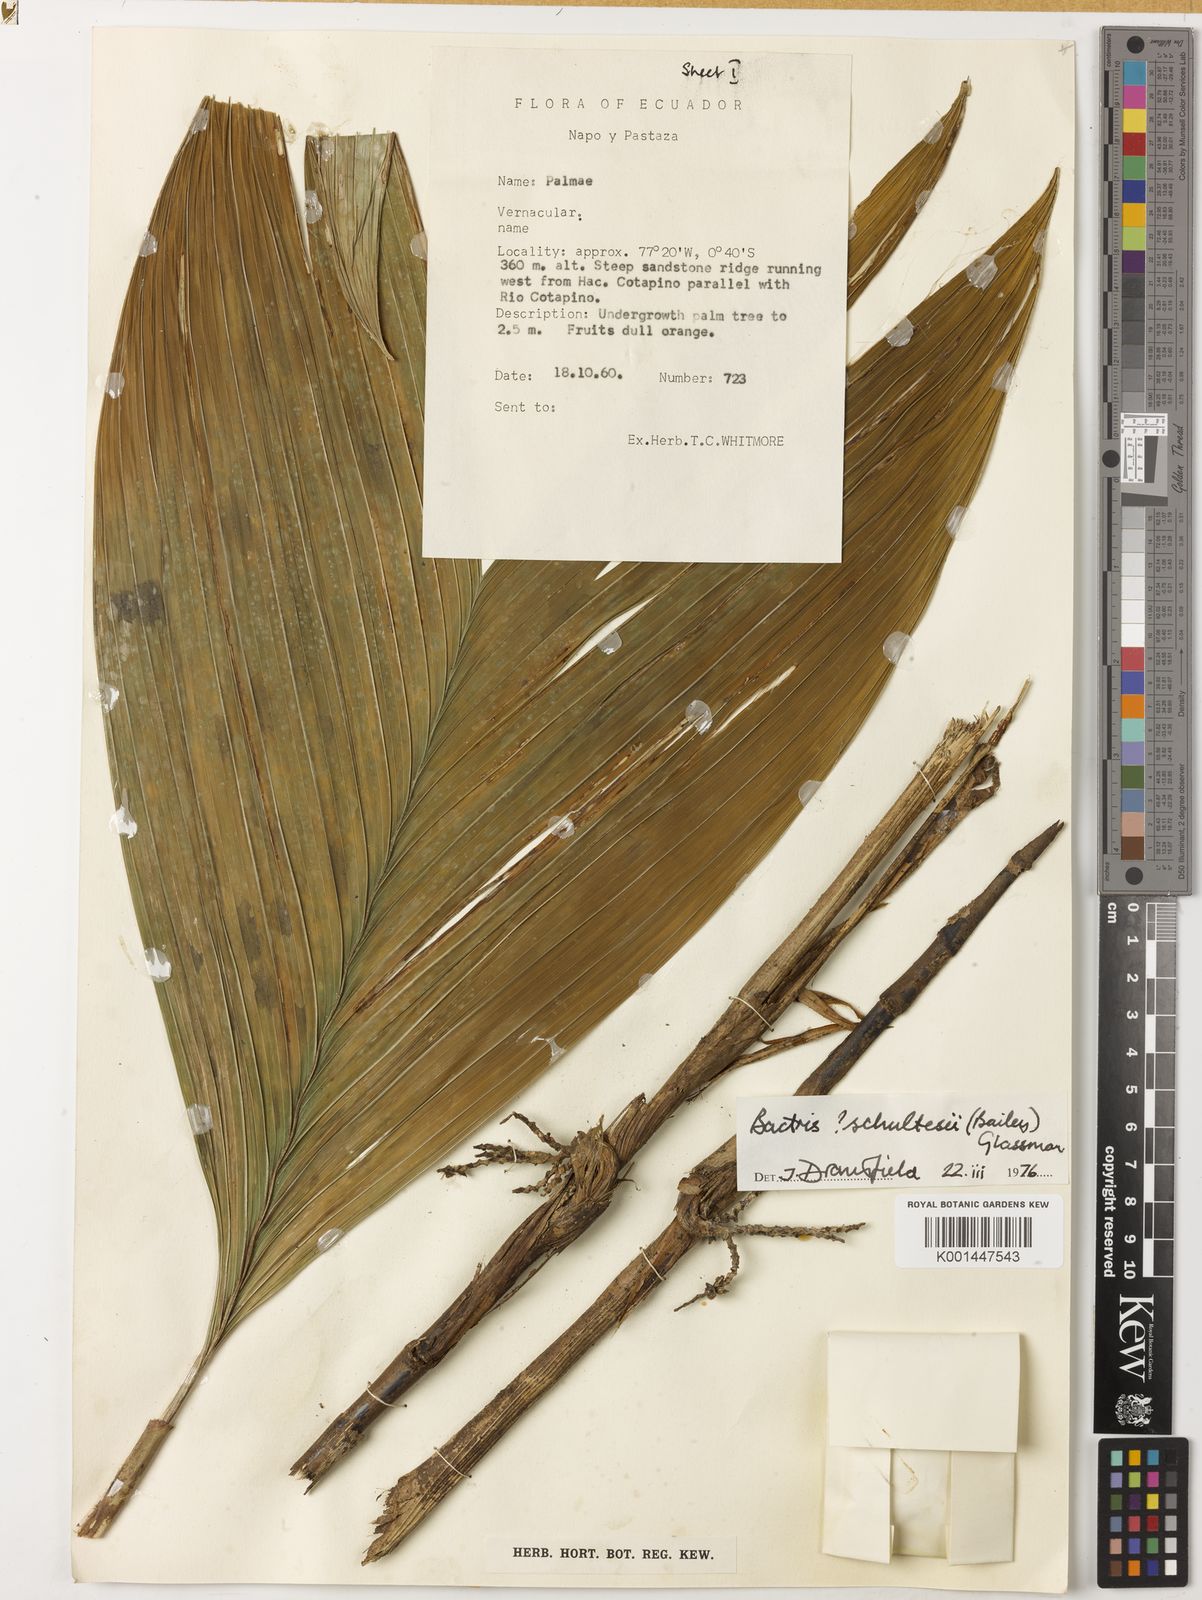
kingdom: Plantae
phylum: Tracheophyta
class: Liliopsida
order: Arecales
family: Arecaceae
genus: Bactris
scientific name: Bactris schultesii
